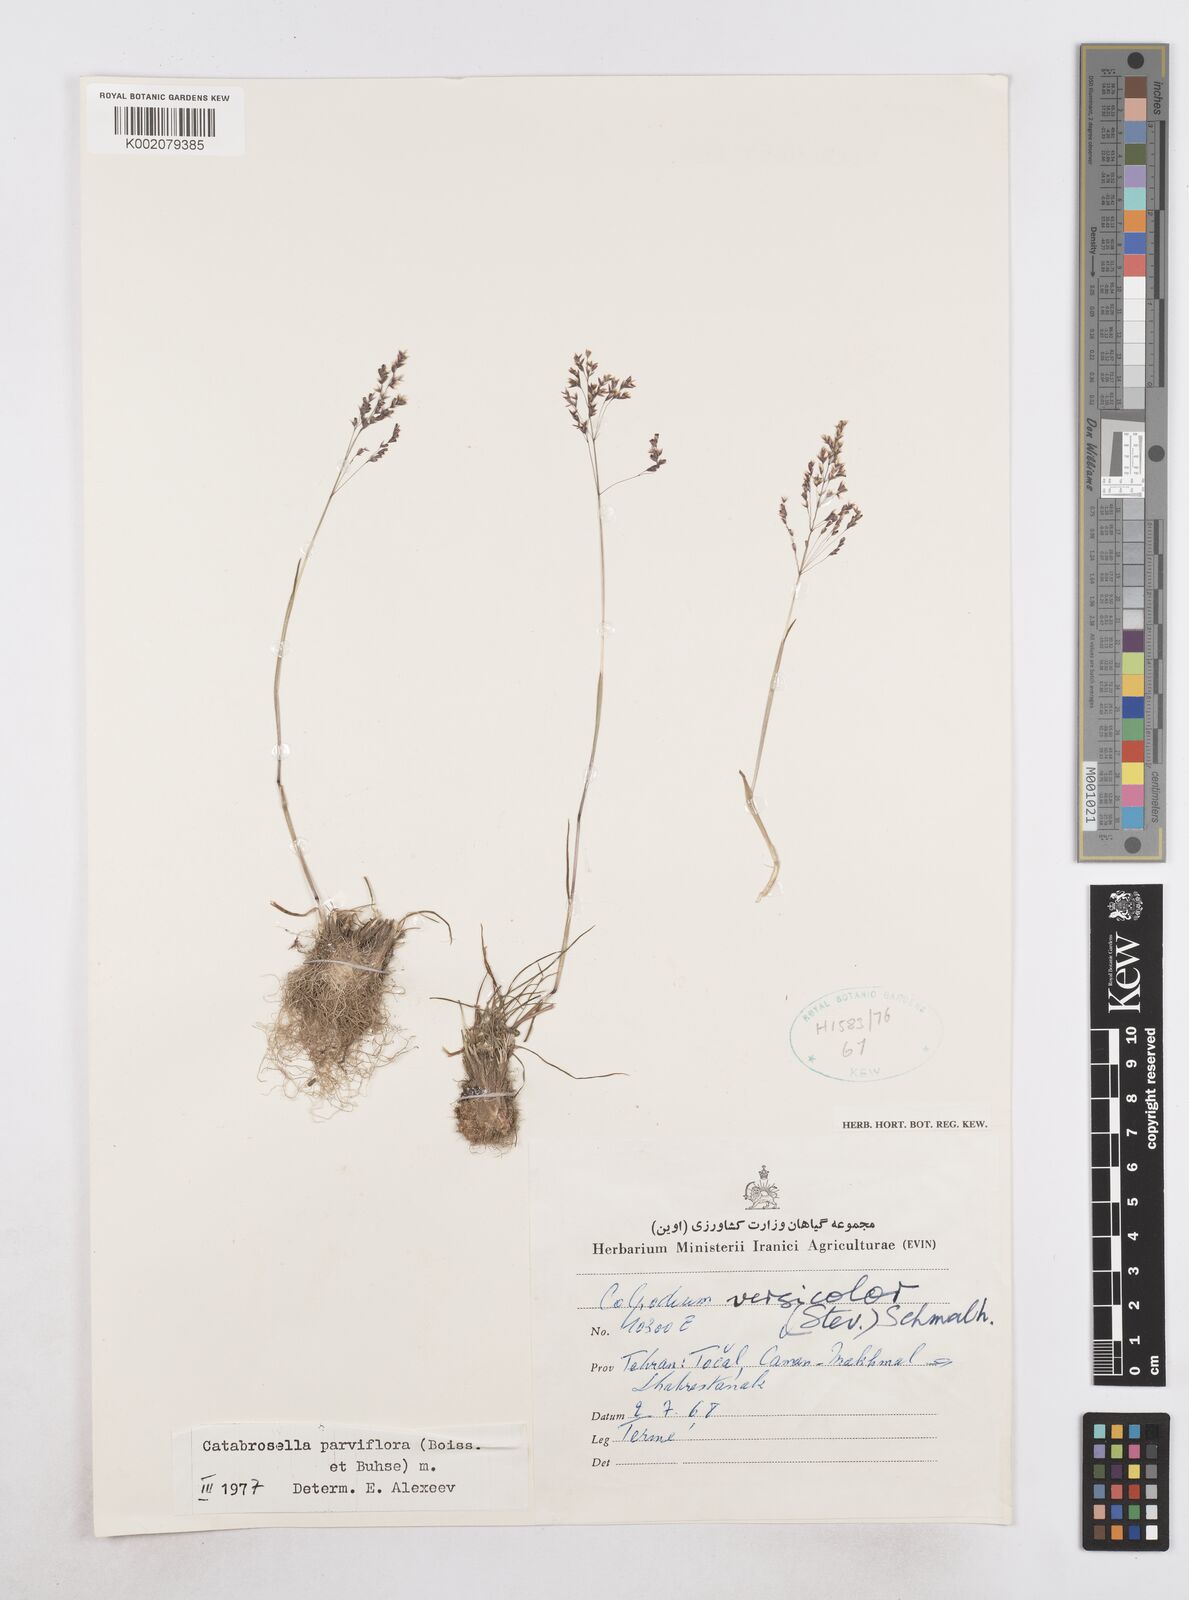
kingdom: Plantae
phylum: Tracheophyta
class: Liliopsida
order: Poales
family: Poaceae
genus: Catabrosella
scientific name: Catabrosella humilis
